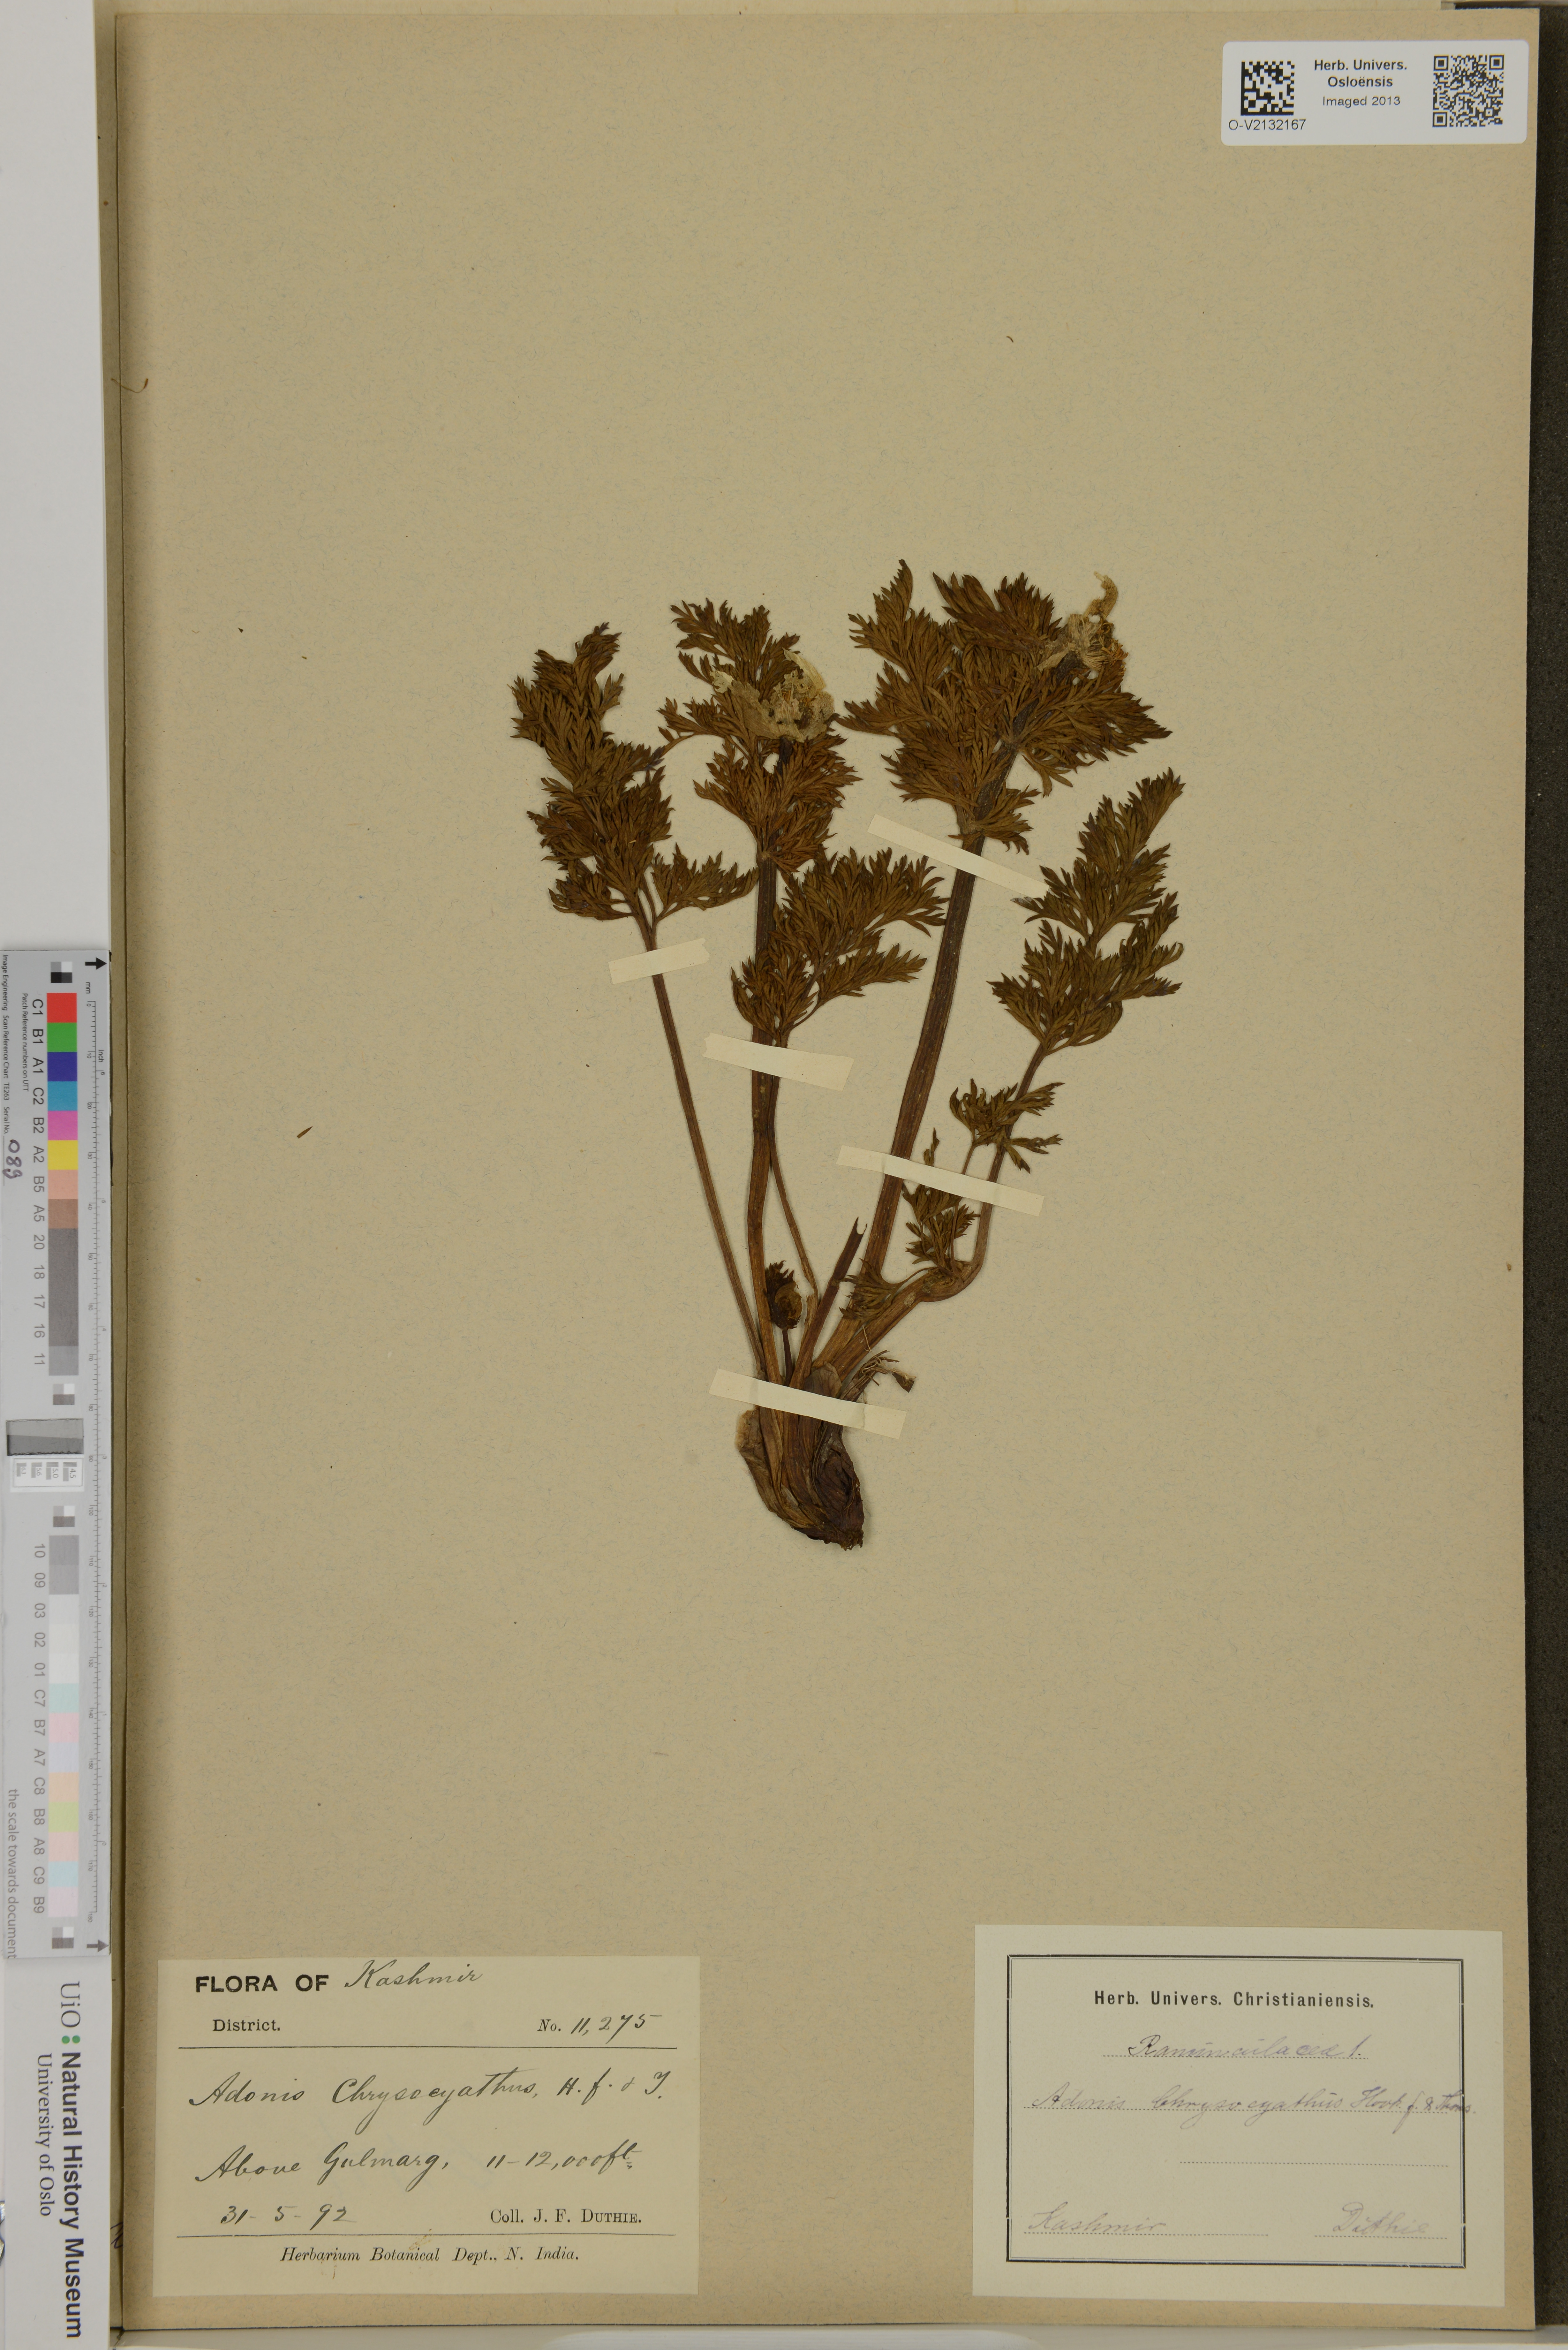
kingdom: Plantae
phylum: Tracheophyta
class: Magnoliopsida
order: Ranunculales
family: Ranunculaceae
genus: Adonis
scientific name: Adonis chrysocyatha
